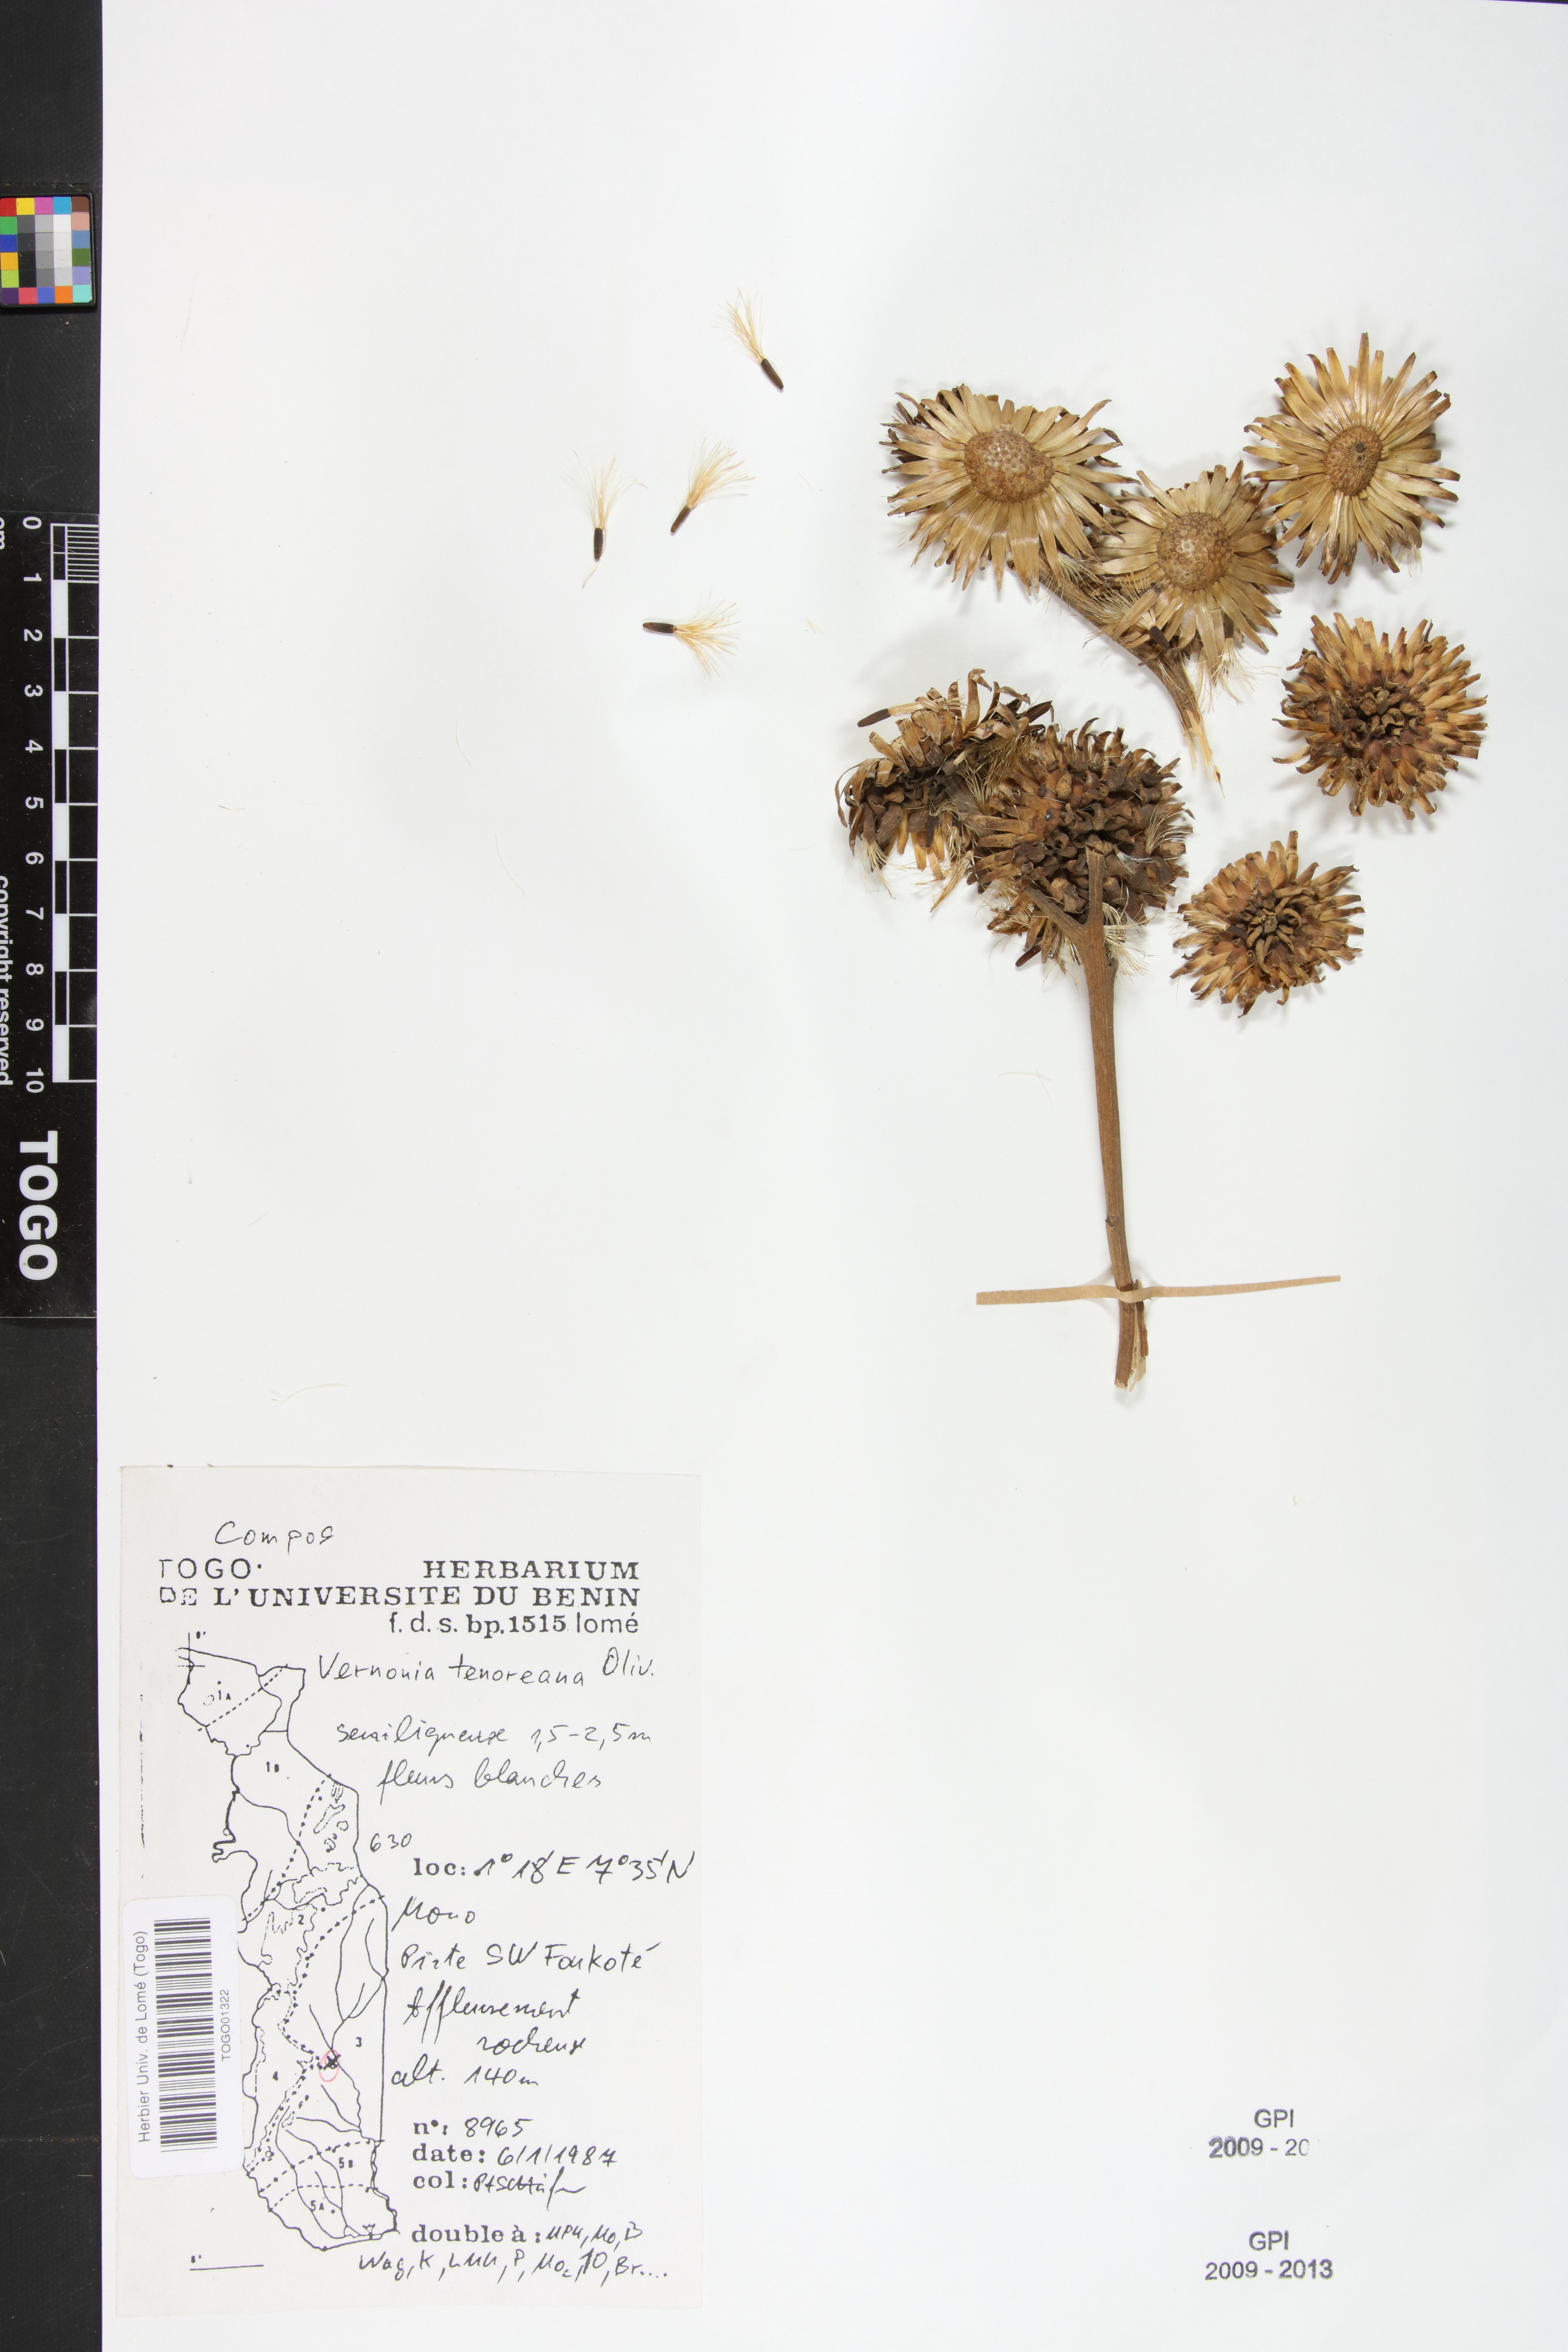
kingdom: Plantae
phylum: Tracheophyta
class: Magnoliopsida
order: Asterales
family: Asteraceae
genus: Baccharoides
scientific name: Baccharoides tenoreana
